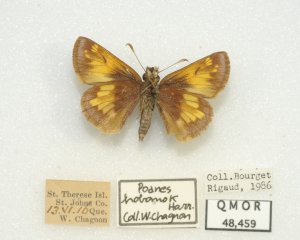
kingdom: Animalia
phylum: Arthropoda
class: Insecta
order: Lepidoptera
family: Hesperiidae
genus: Lon
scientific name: Lon hobomok
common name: Hobomok Skipper
